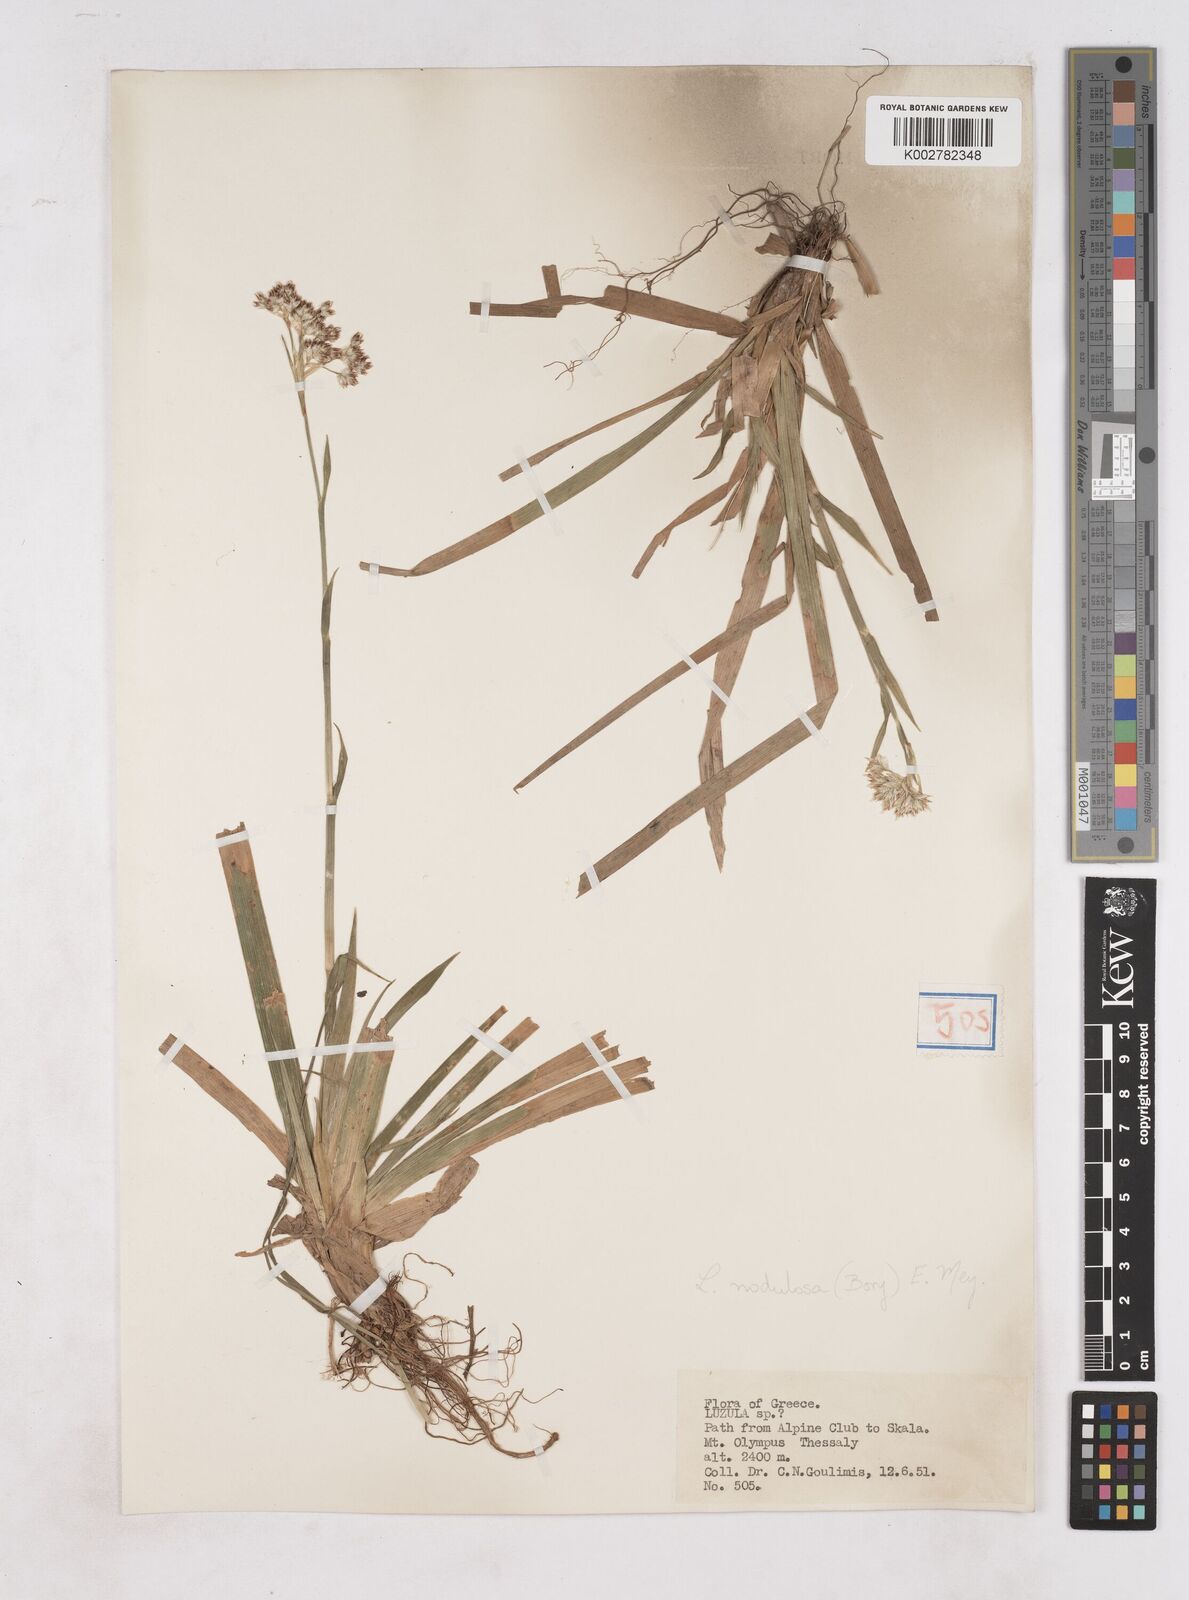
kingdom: Plantae
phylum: Tracheophyta
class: Liliopsida
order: Poales
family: Juncaceae
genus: Luzula
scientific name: Luzula nodulosa
